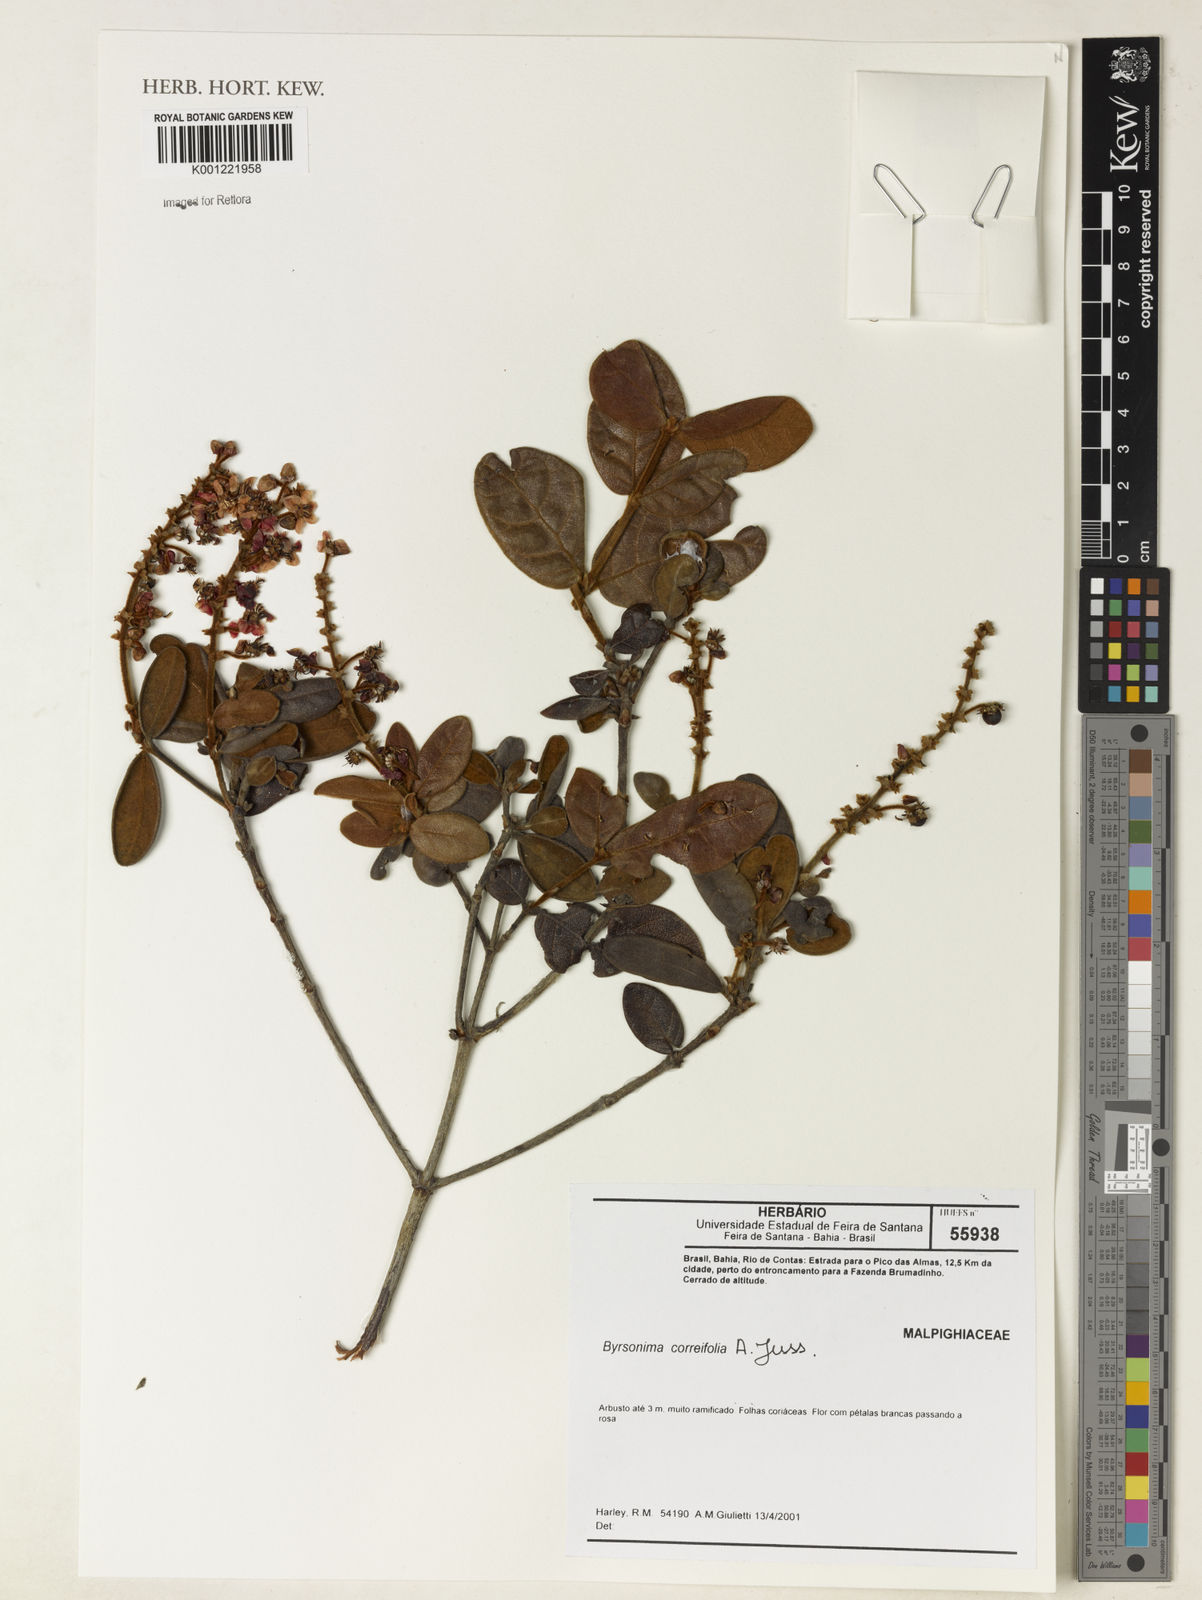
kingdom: Plantae
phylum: Tracheophyta
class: Magnoliopsida
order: Malpighiales
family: Malpighiaceae
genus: Byrsonima
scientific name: Byrsonima correifolia
